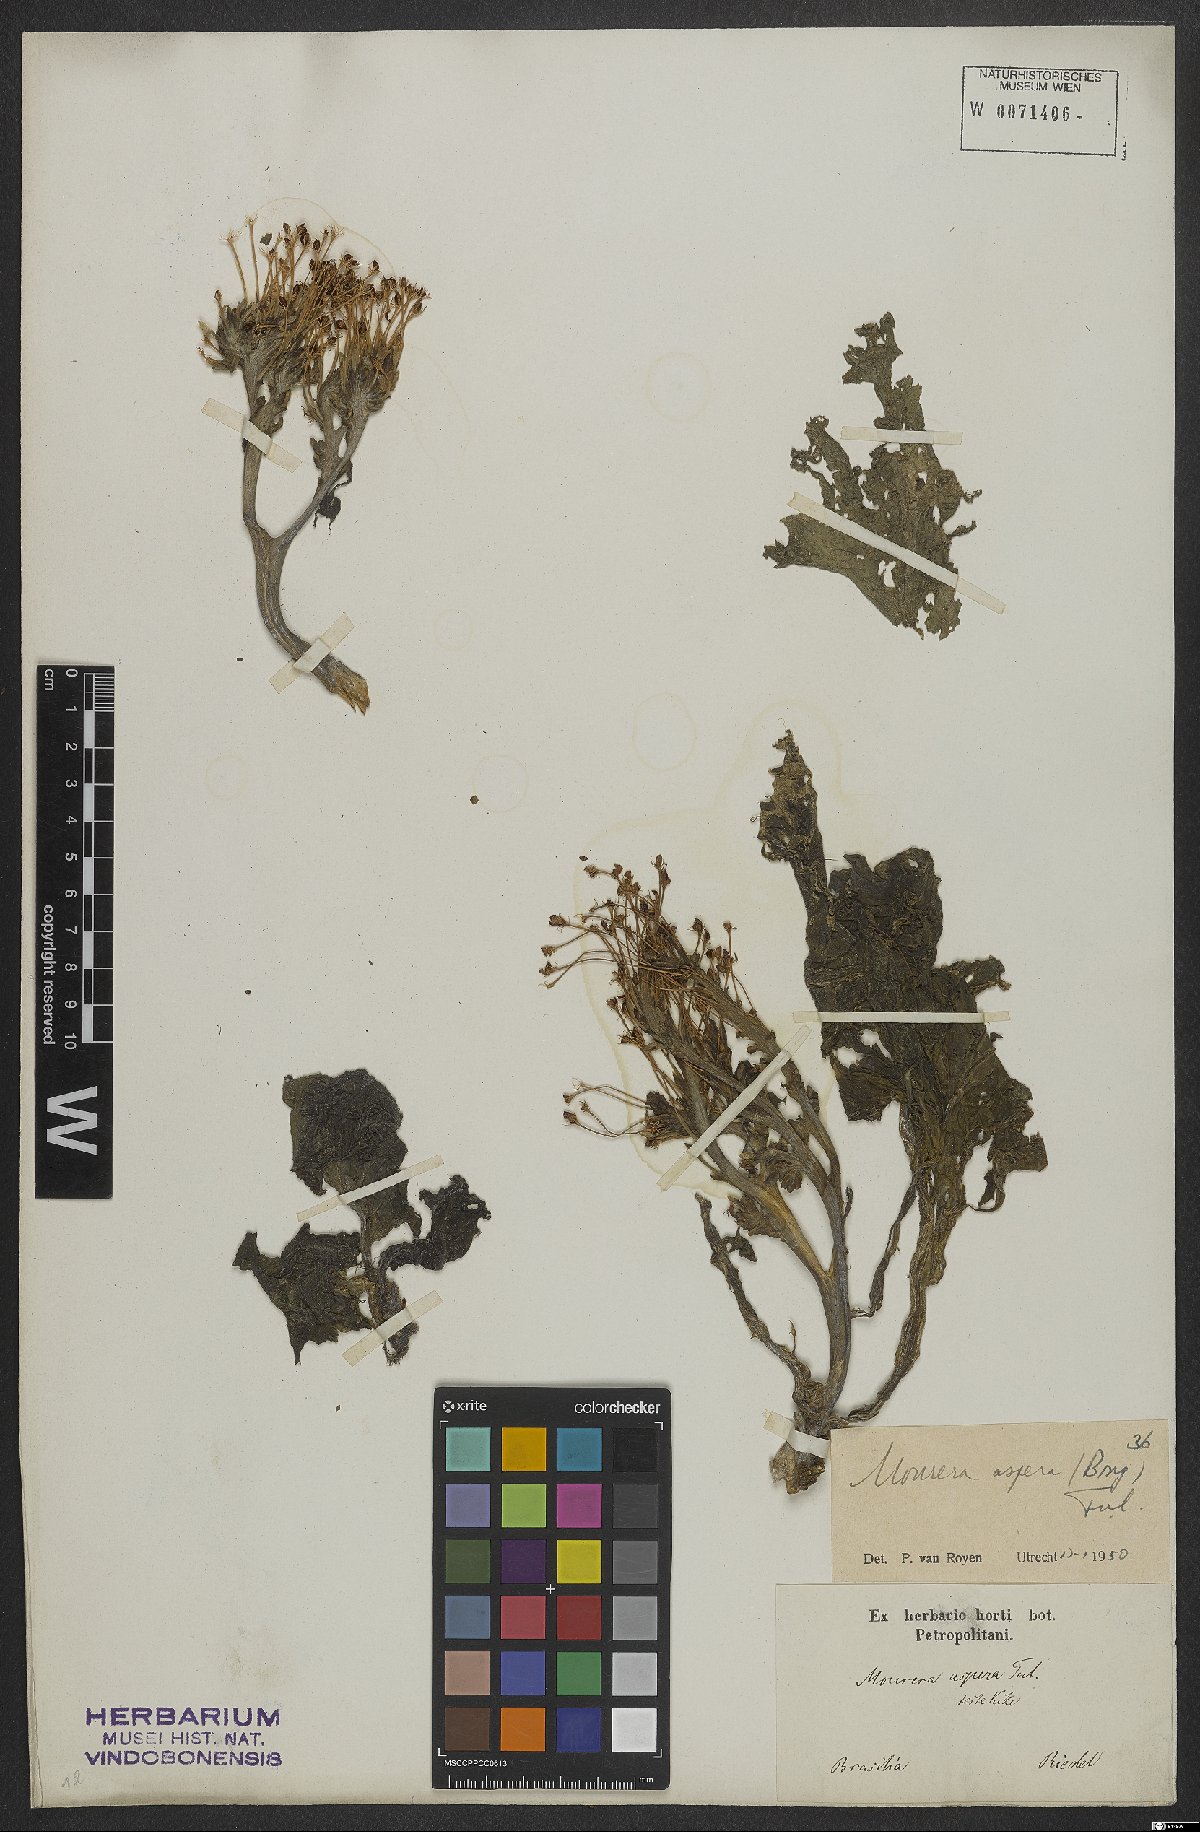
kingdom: Plantae
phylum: Tracheophyta
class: Magnoliopsida
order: Malpighiales
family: Podostemaceae
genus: Mourera
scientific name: Mourera aspera
